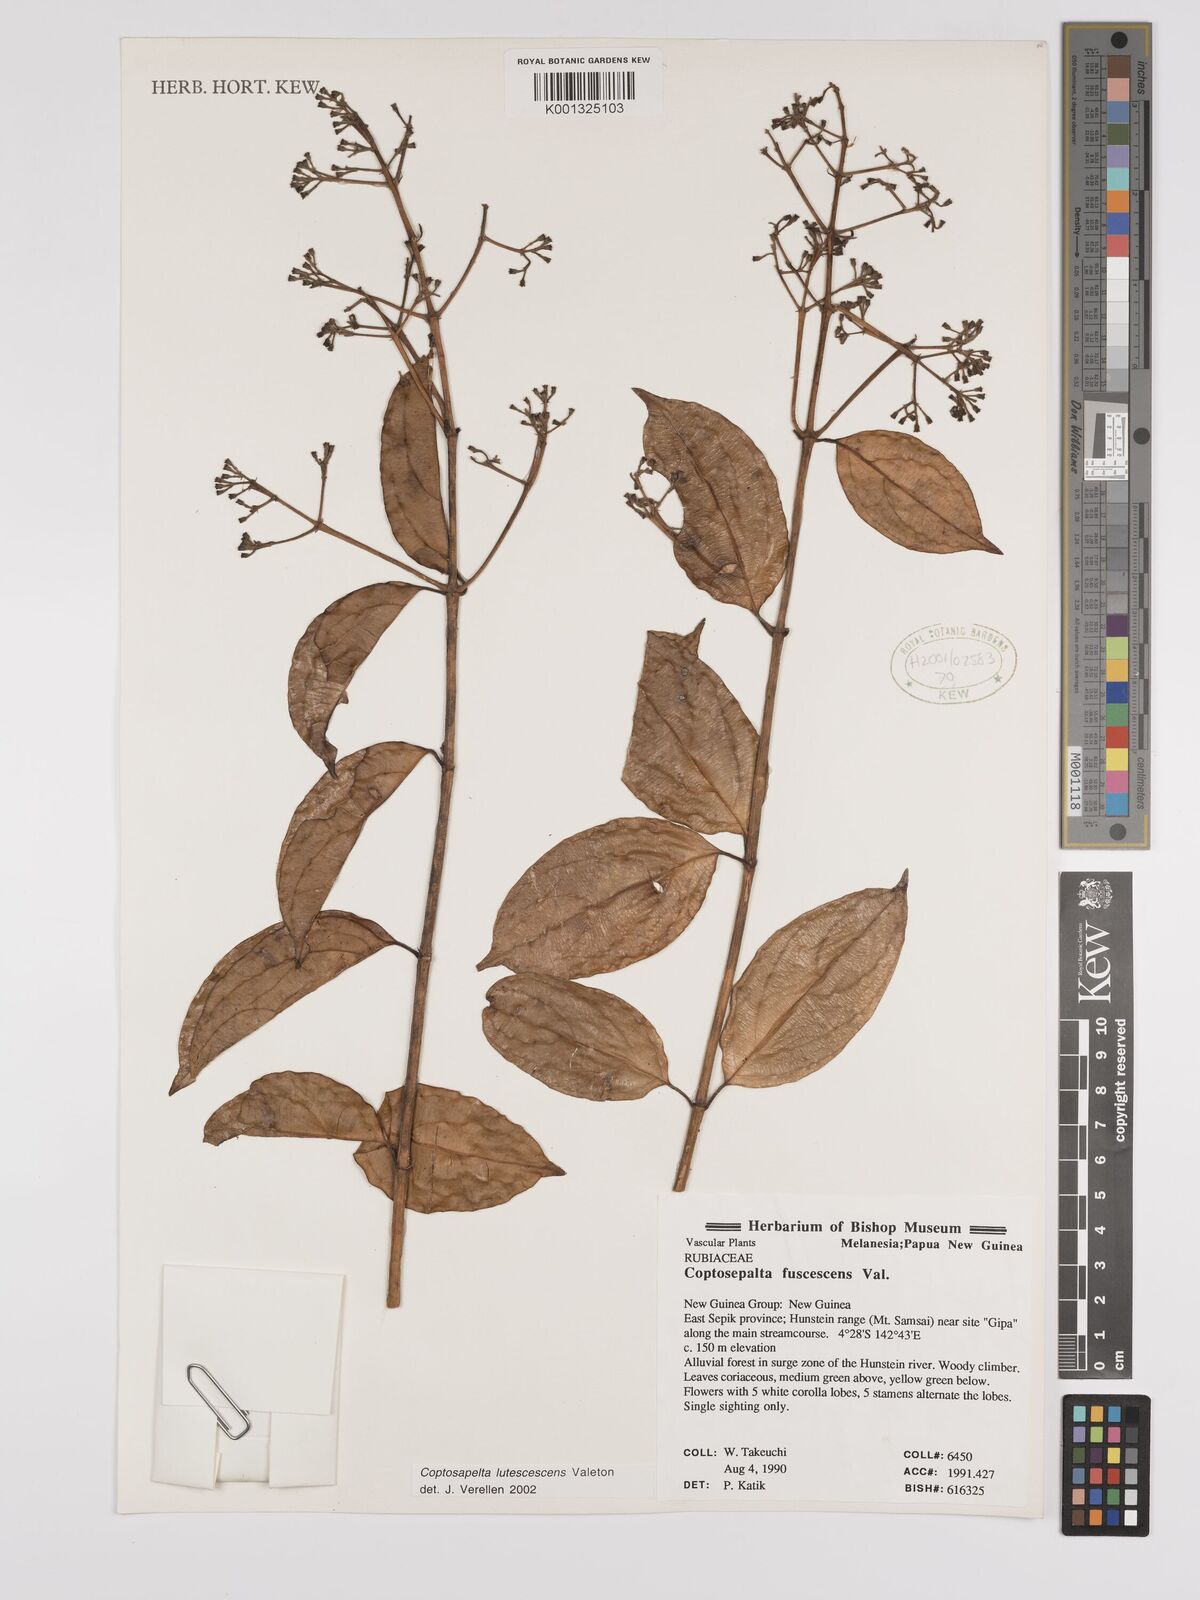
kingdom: Plantae
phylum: Tracheophyta
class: Magnoliopsida
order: Gentianales
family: Rubiaceae
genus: Coptosapelta
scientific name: Coptosapelta lutescens
